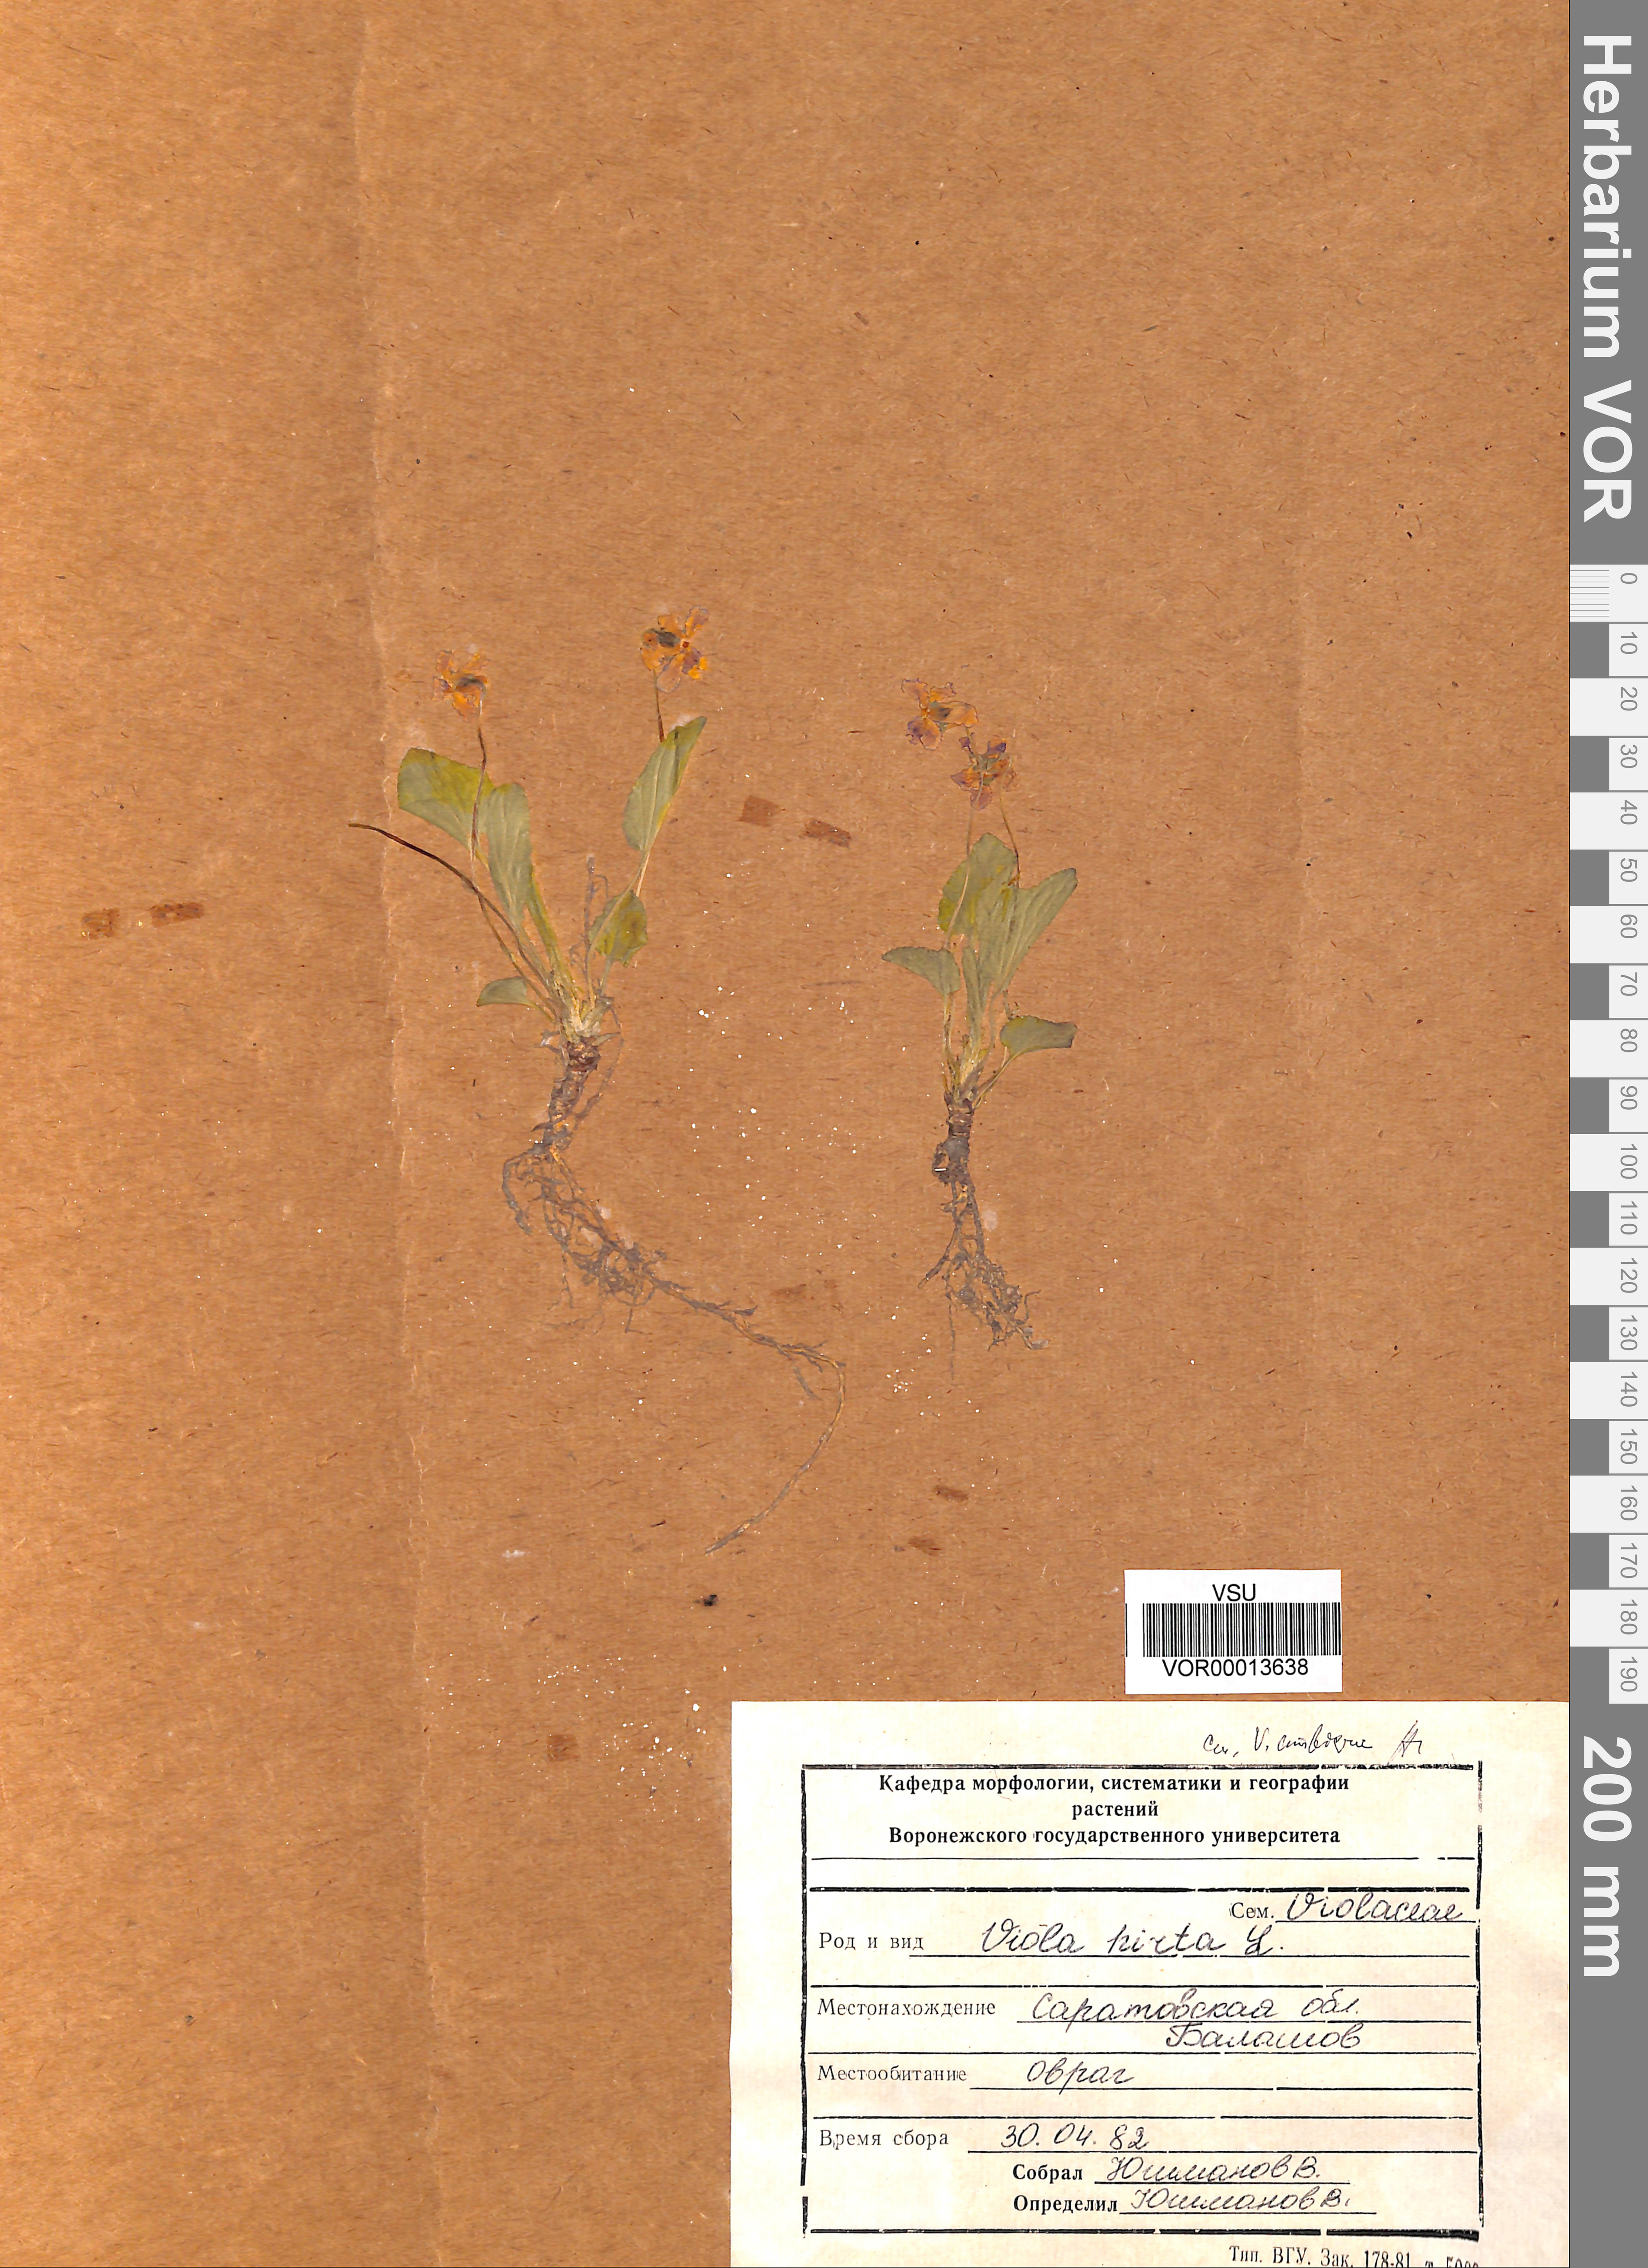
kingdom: Plantae
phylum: Tracheophyta
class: Magnoliopsida
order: Malpighiales
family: Violaceae
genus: Viola
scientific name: Viola hirta
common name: Hairy violet
